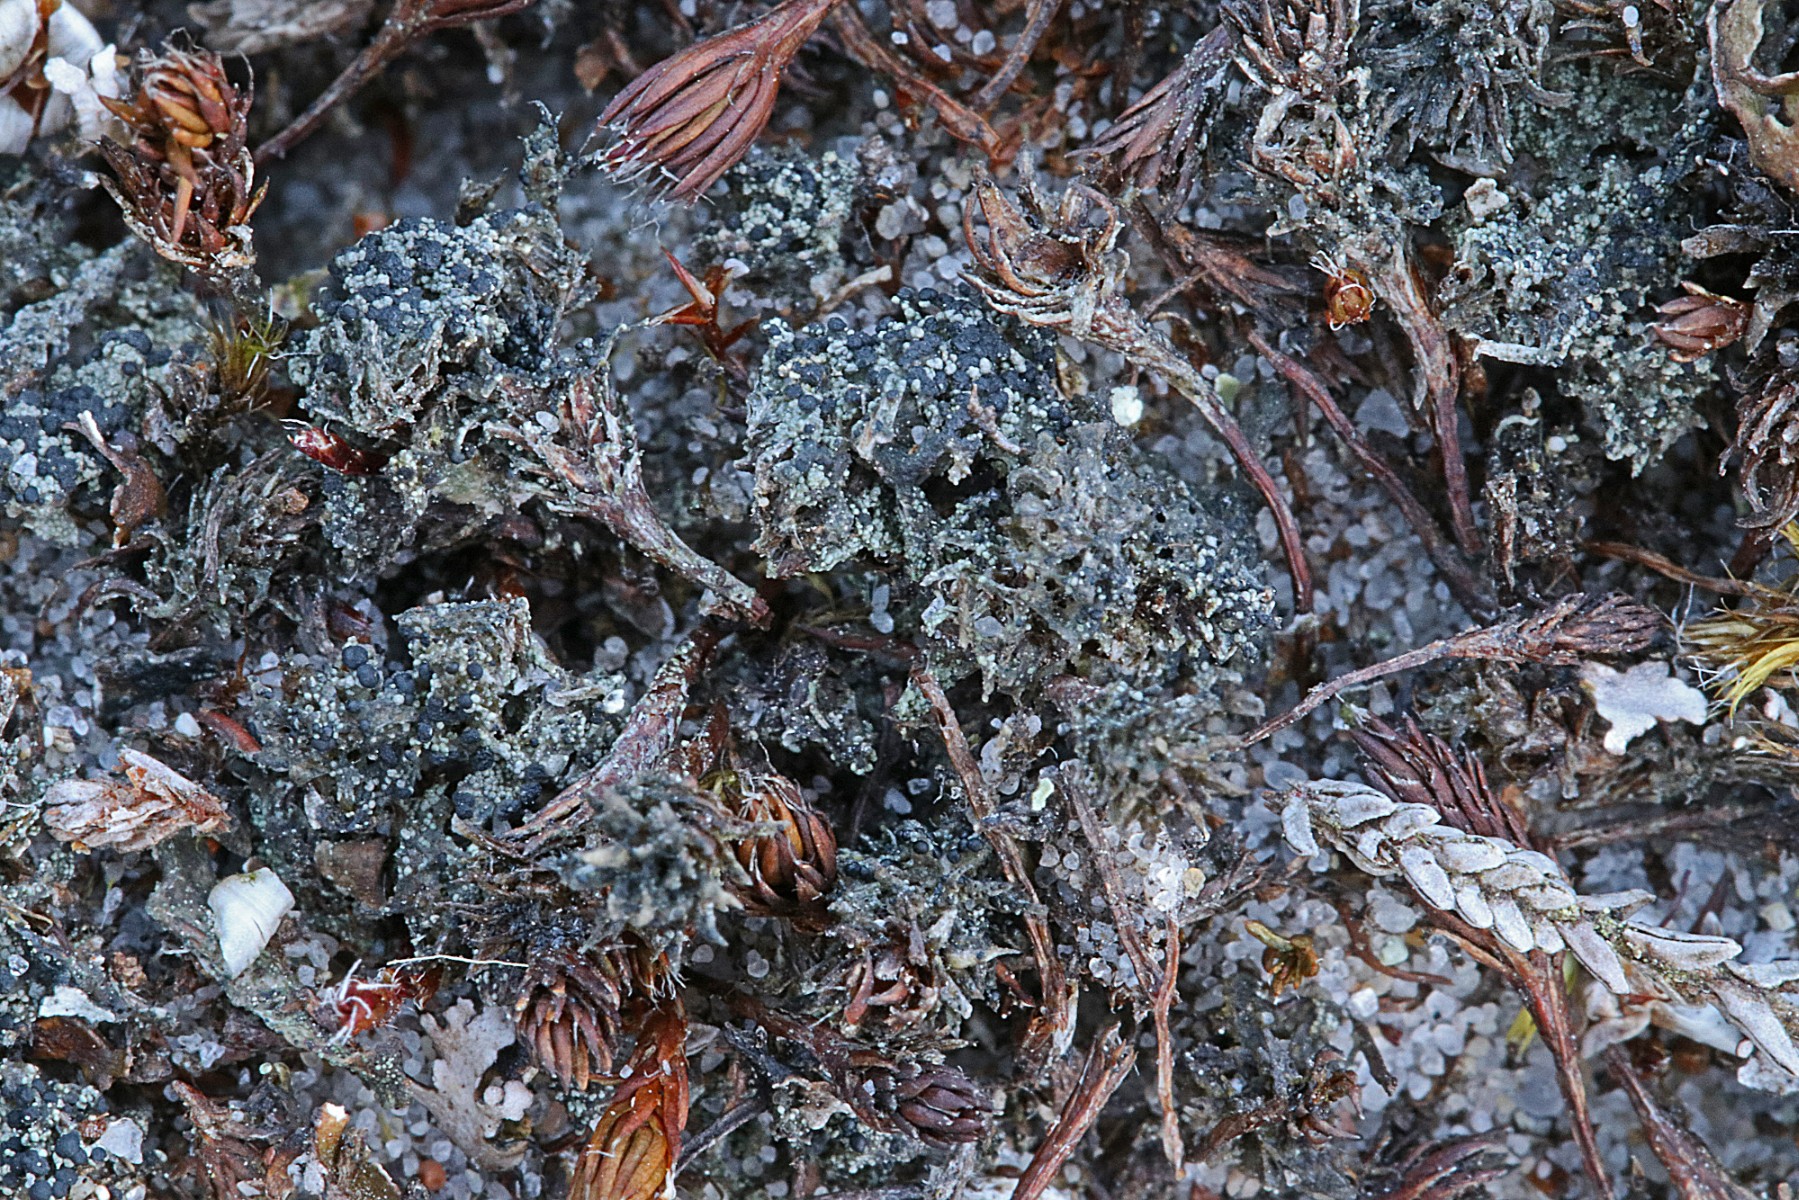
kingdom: Fungi
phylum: Ascomycota
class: Lecanoromycetes
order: Lecanorales
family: Byssolomataceae
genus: Micarea
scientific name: Micarea lignaria
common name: tørve-knaplav
